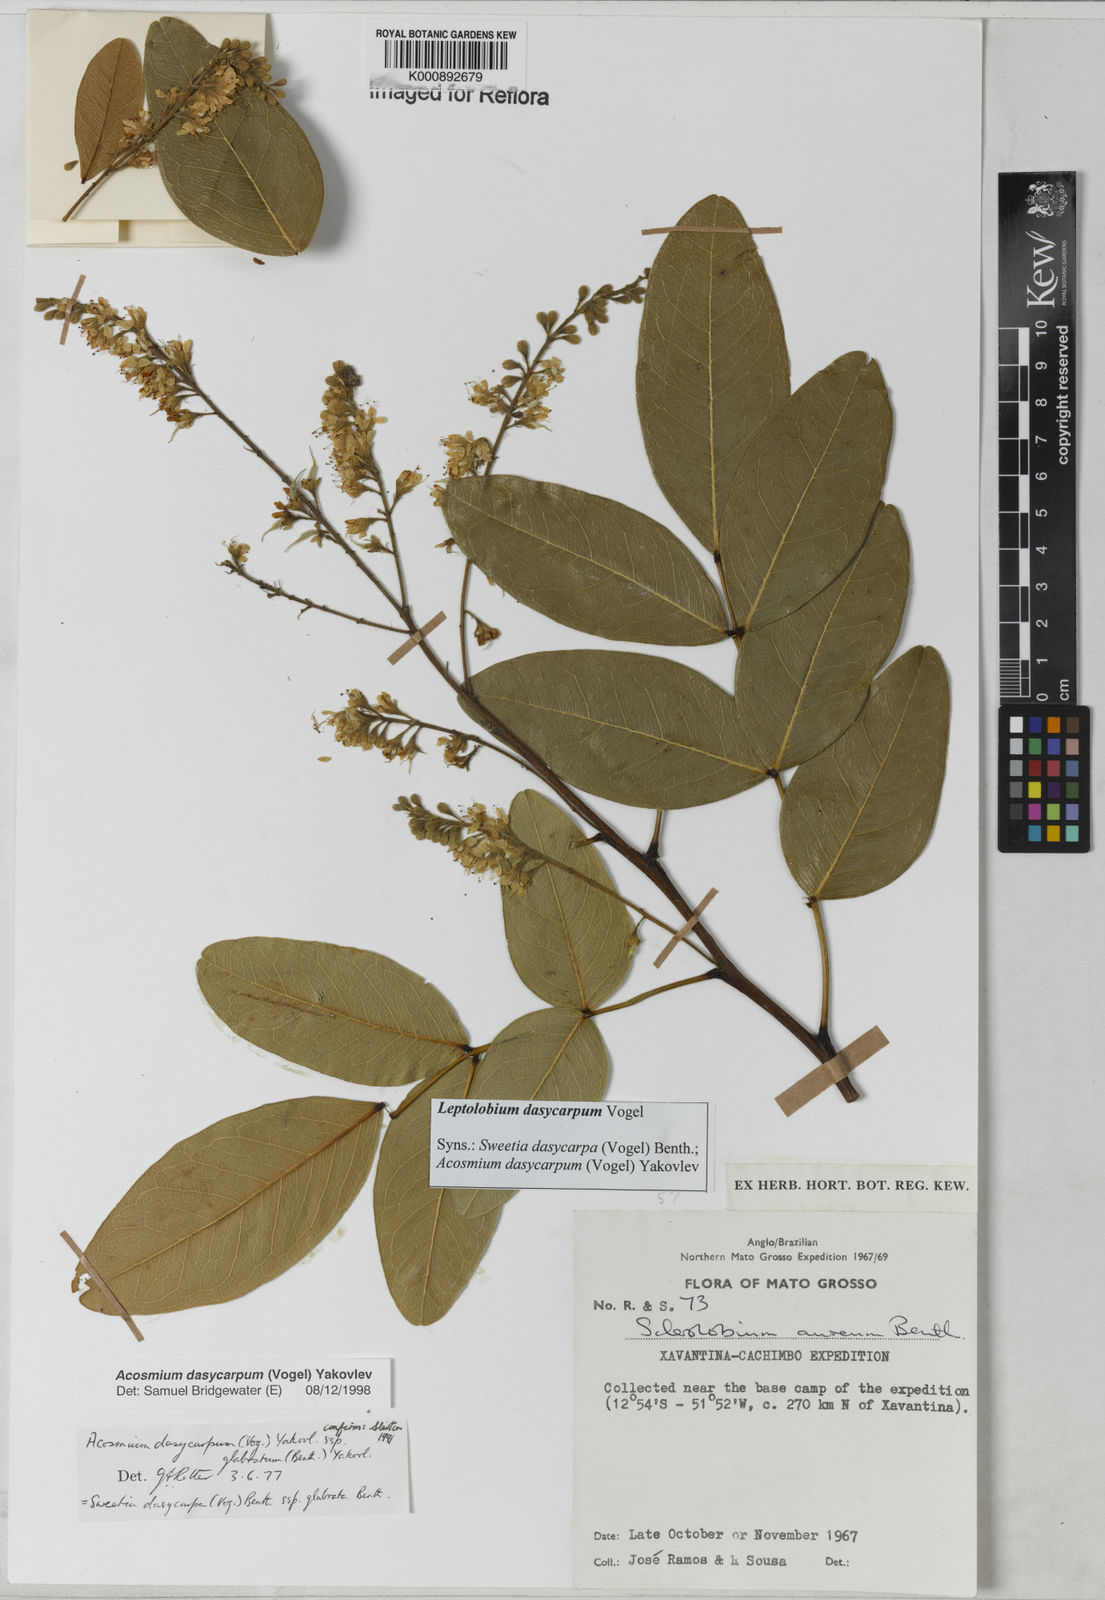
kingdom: Plantae
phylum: Tracheophyta
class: Magnoliopsida
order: Fabales
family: Fabaceae
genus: Leptolobium
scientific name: Leptolobium dasycarpum
